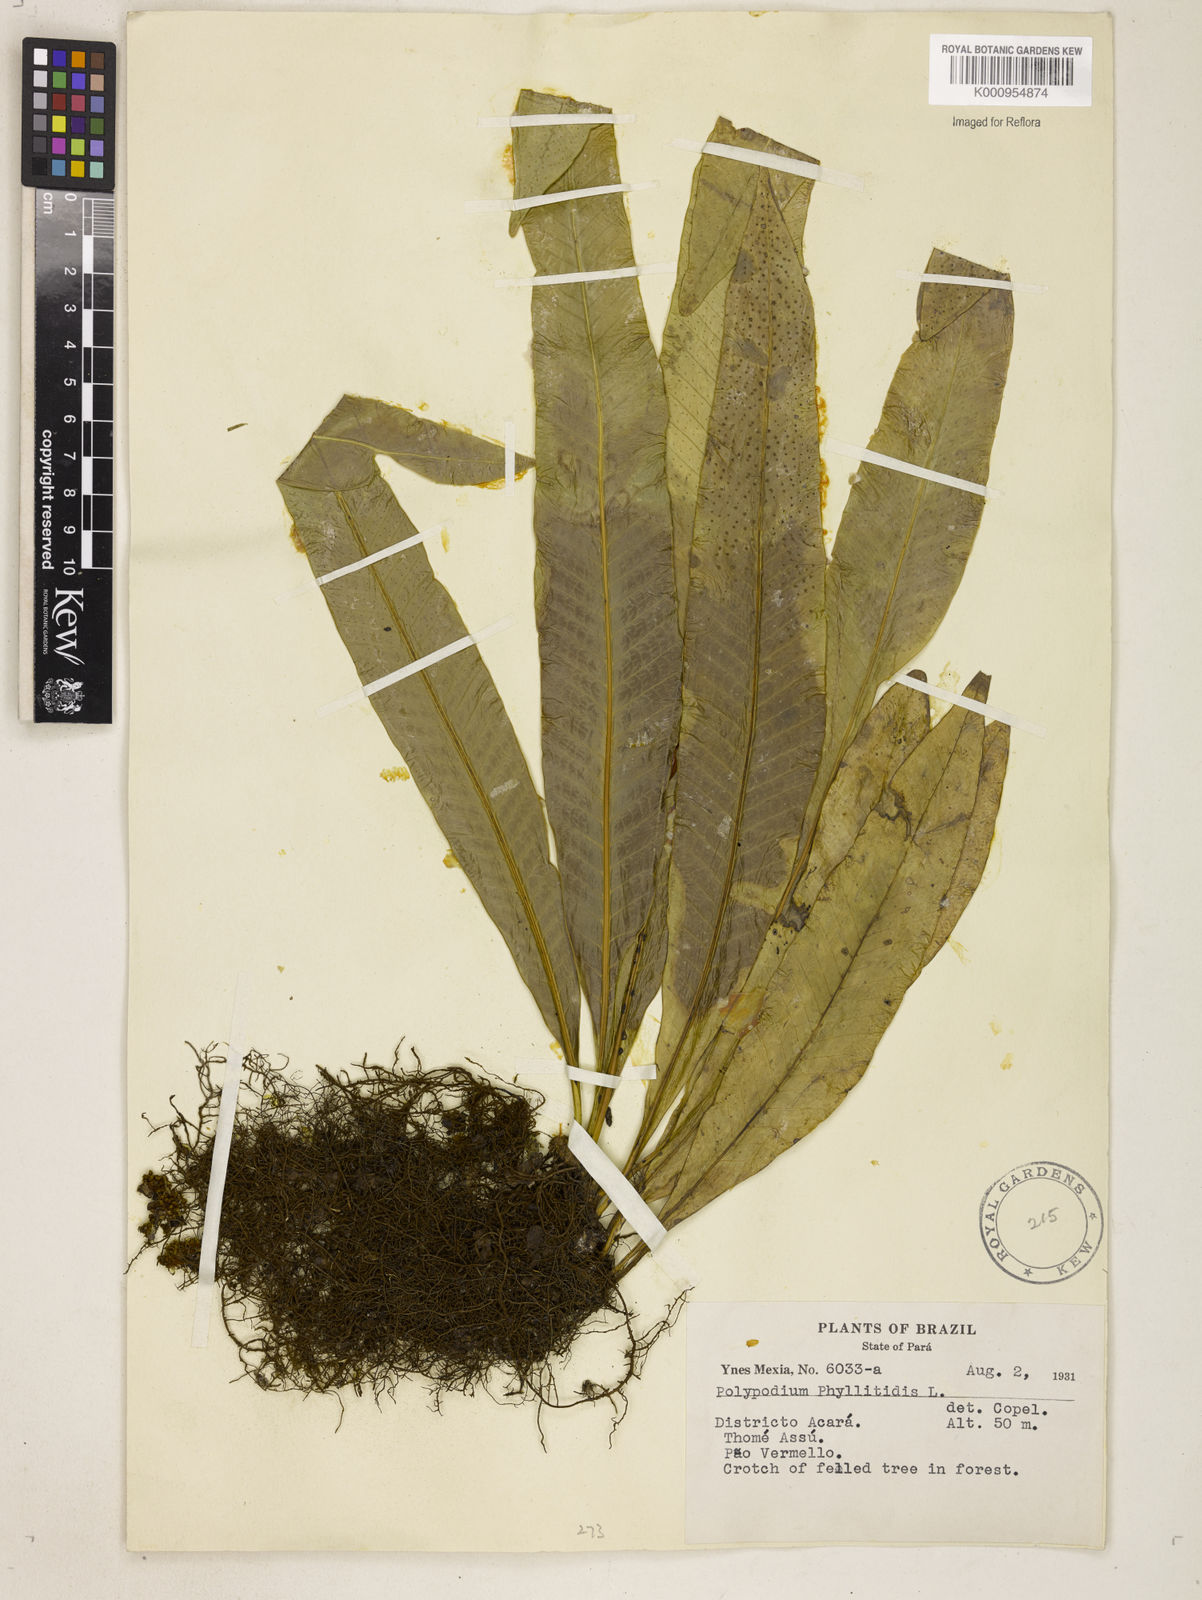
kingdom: Plantae
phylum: Tracheophyta
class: Polypodiopsida
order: Polypodiales
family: Polypodiaceae
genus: Campyloneurum
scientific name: Campyloneurum phyllitidis
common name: Cow-tongue fern
